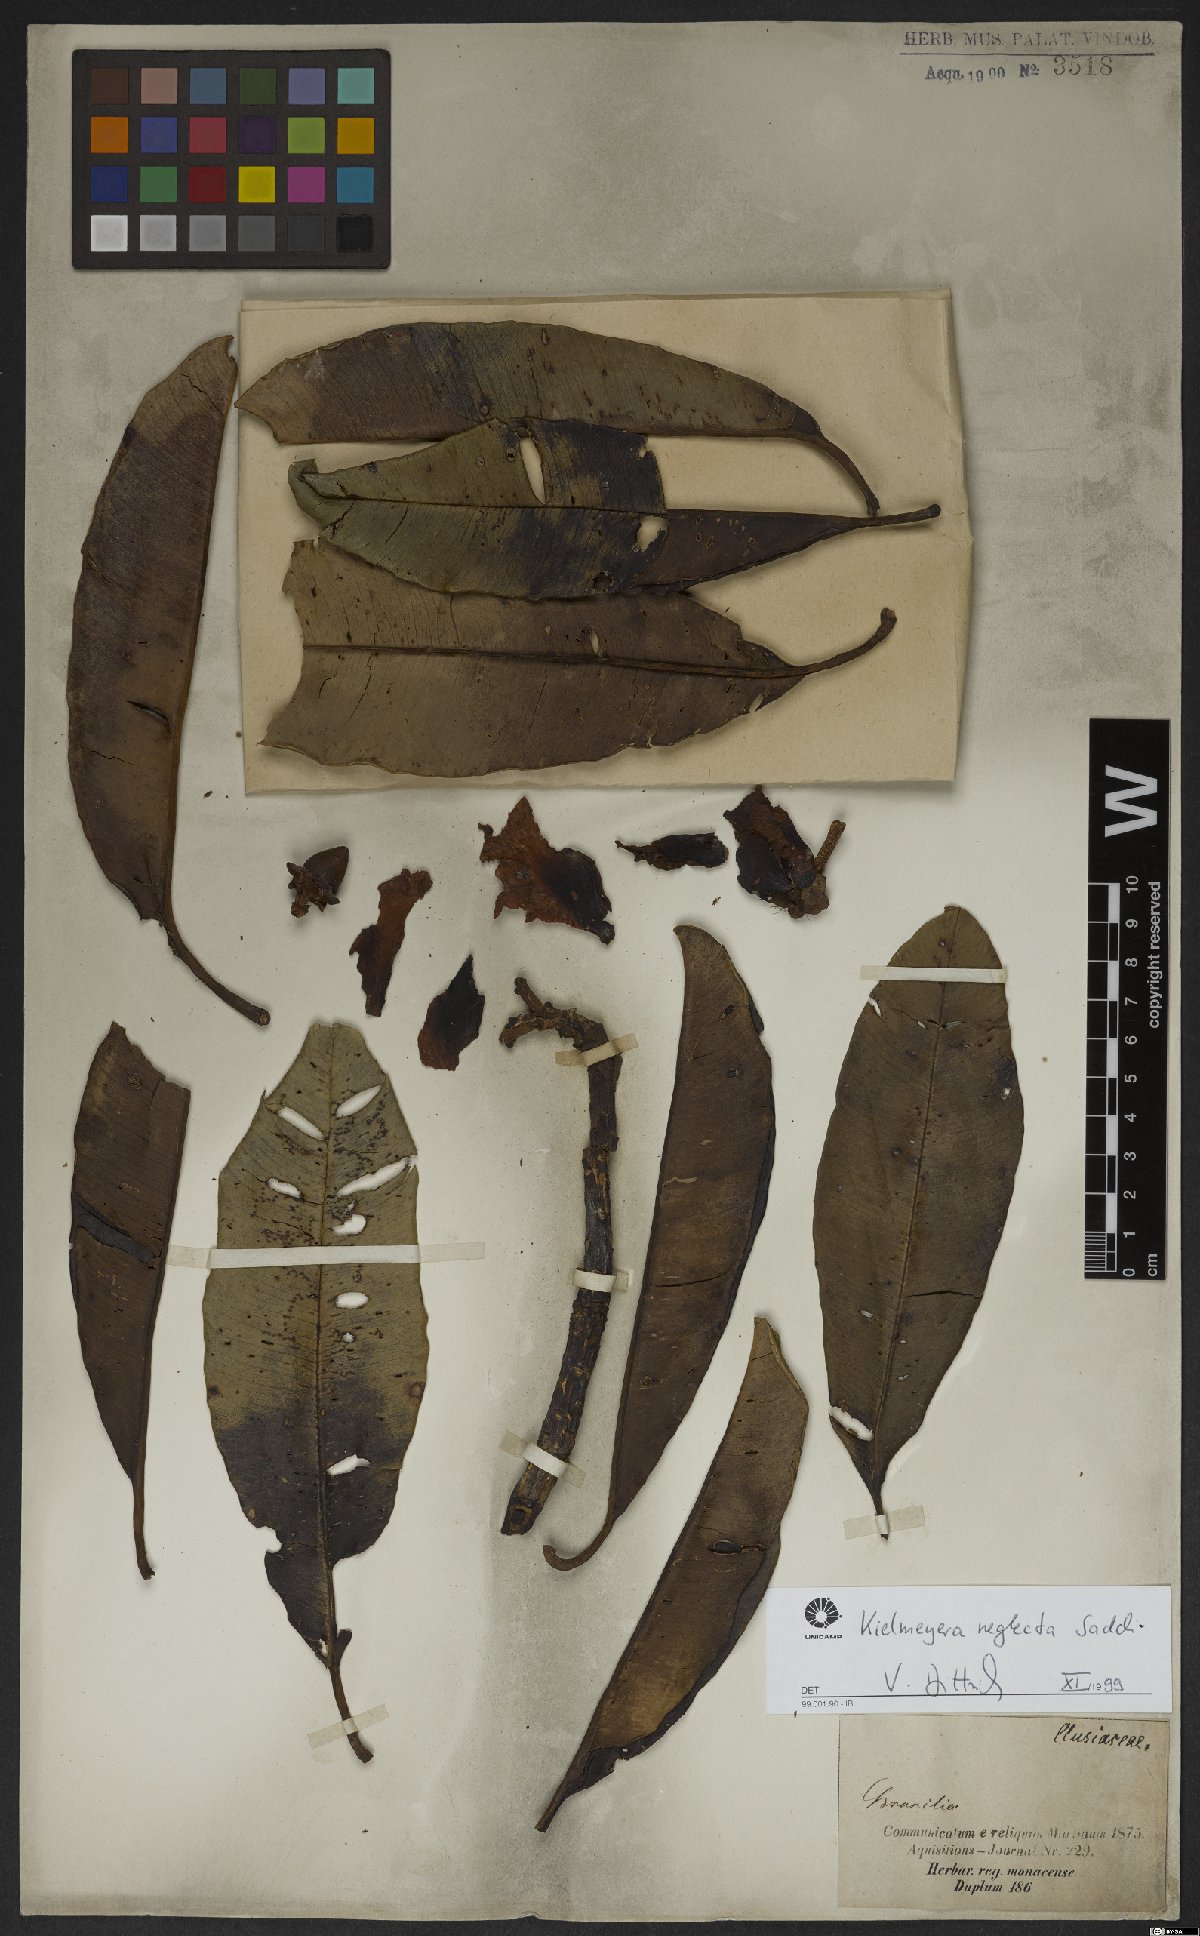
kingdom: Plantae
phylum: Tracheophyta
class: Magnoliopsida
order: Malpighiales
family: Calophyllaceae
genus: Kielmeyera
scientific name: Kielmeyera neglecta
